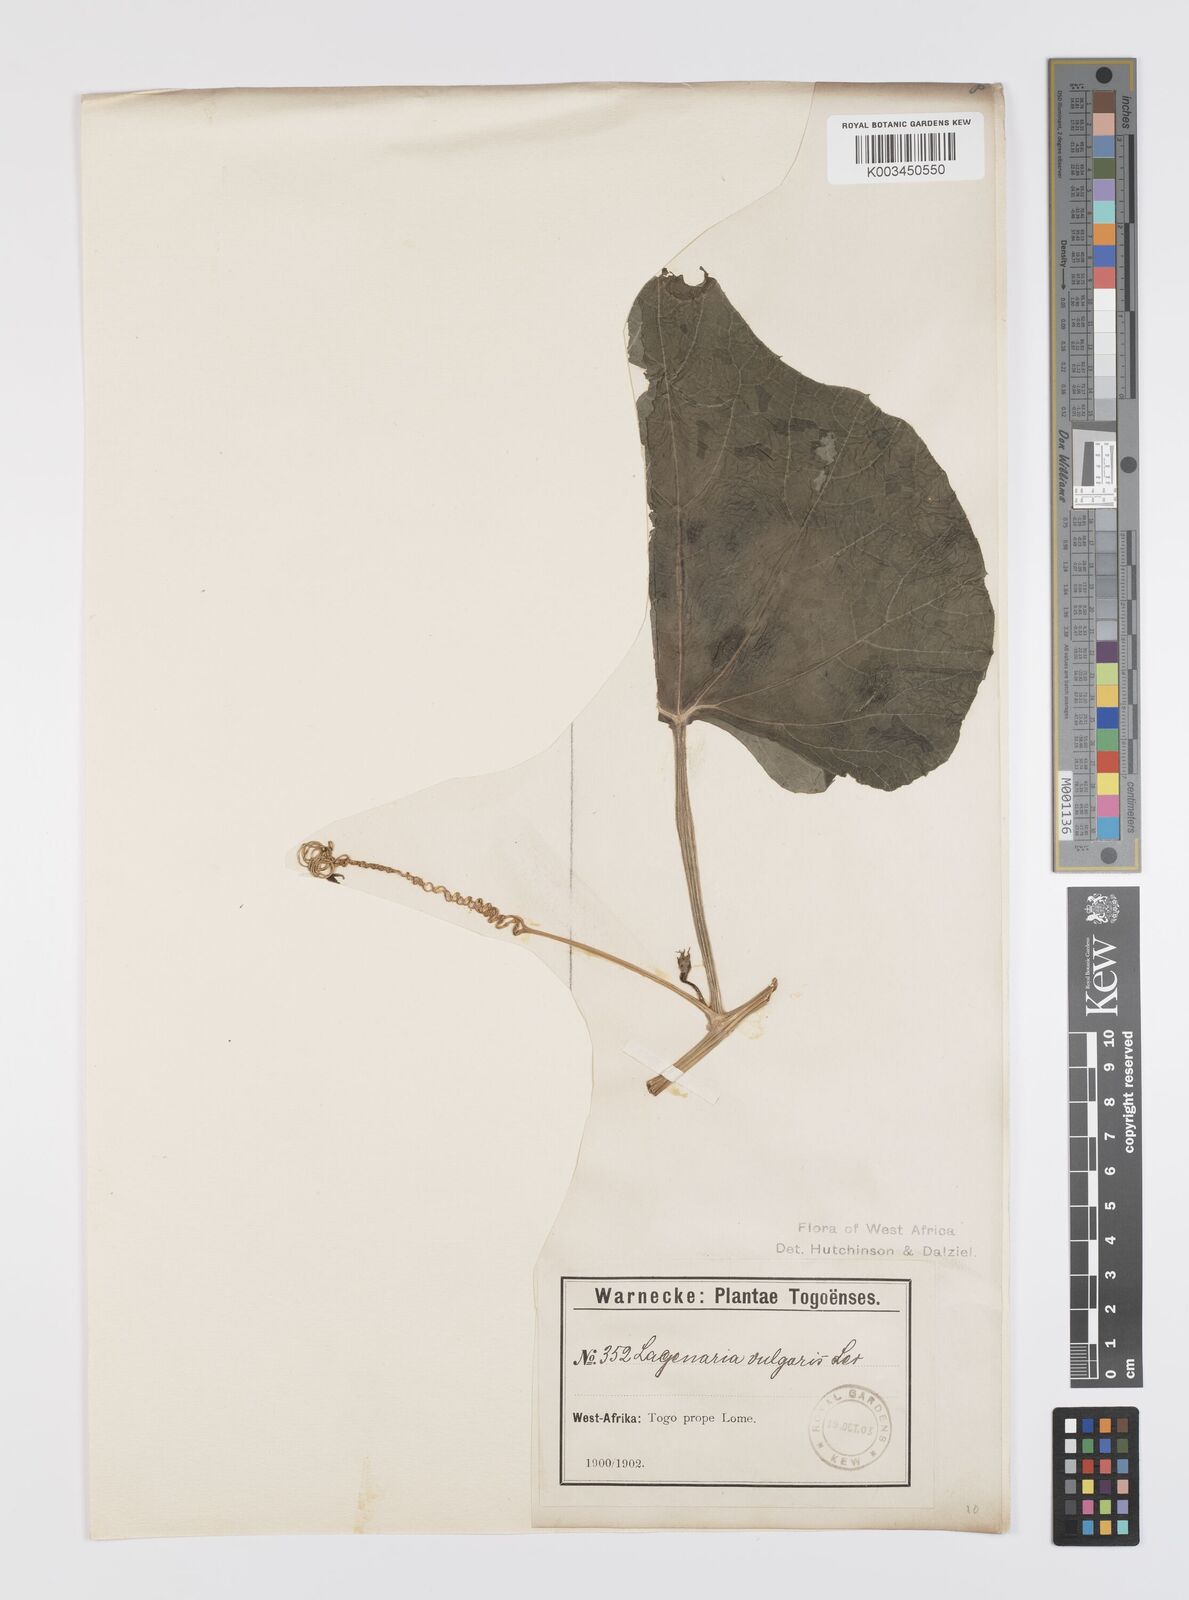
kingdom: Plantae
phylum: Tracheophyta
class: Magnoliopsida
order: Cucurbitales
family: Cucurbitaceae
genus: Lagenaria
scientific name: Lagenaria siceraria
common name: Bottle gourd
